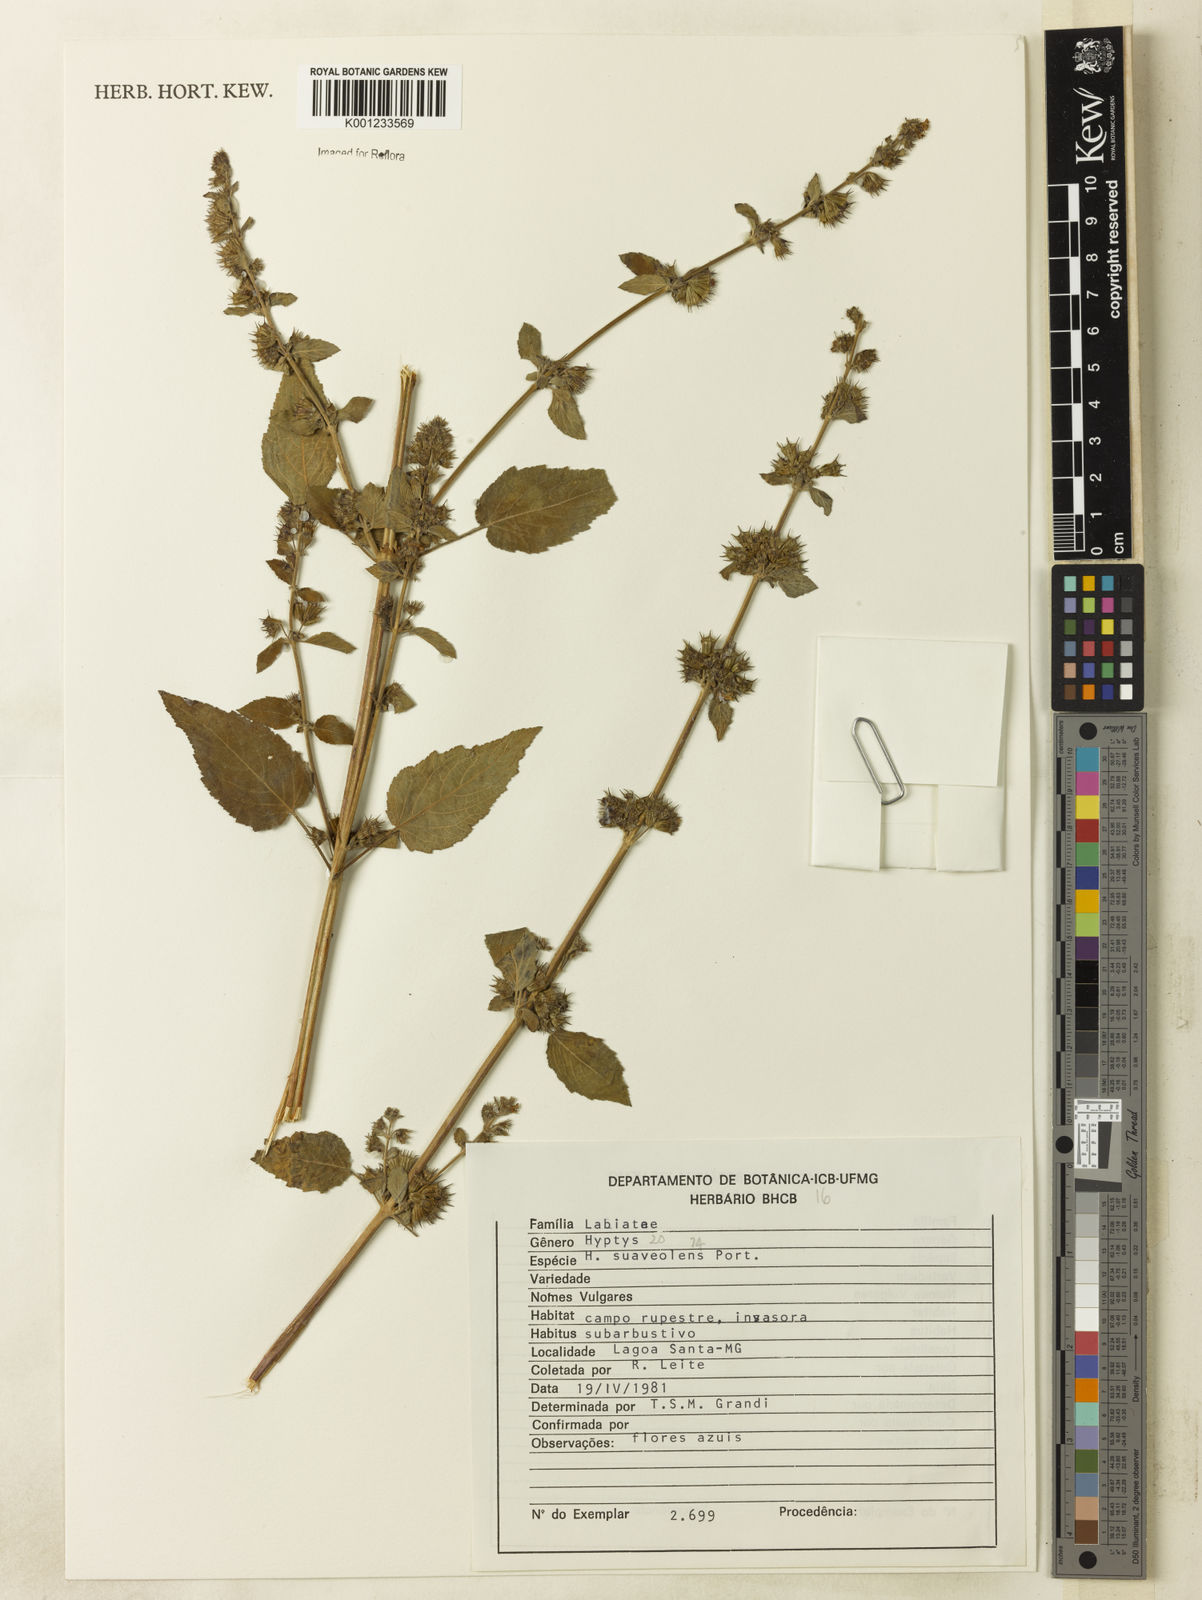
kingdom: Plantae
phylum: Tracheophyta
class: Magnoliopsida
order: Lamiales
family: Lamiaceae
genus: Mesosphaerum
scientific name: Mesosphaerum suaveolens
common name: Pignut
